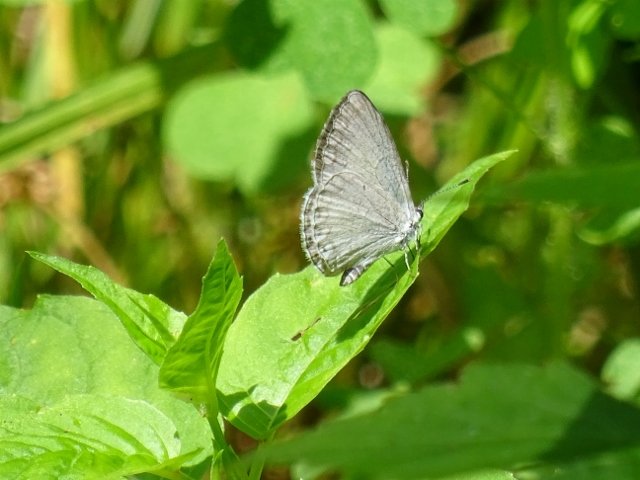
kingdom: Animalia
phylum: Arthropoda
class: Insecta
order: Lepidoptera
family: Lycaenidae
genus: Celastrina
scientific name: Celastrina
